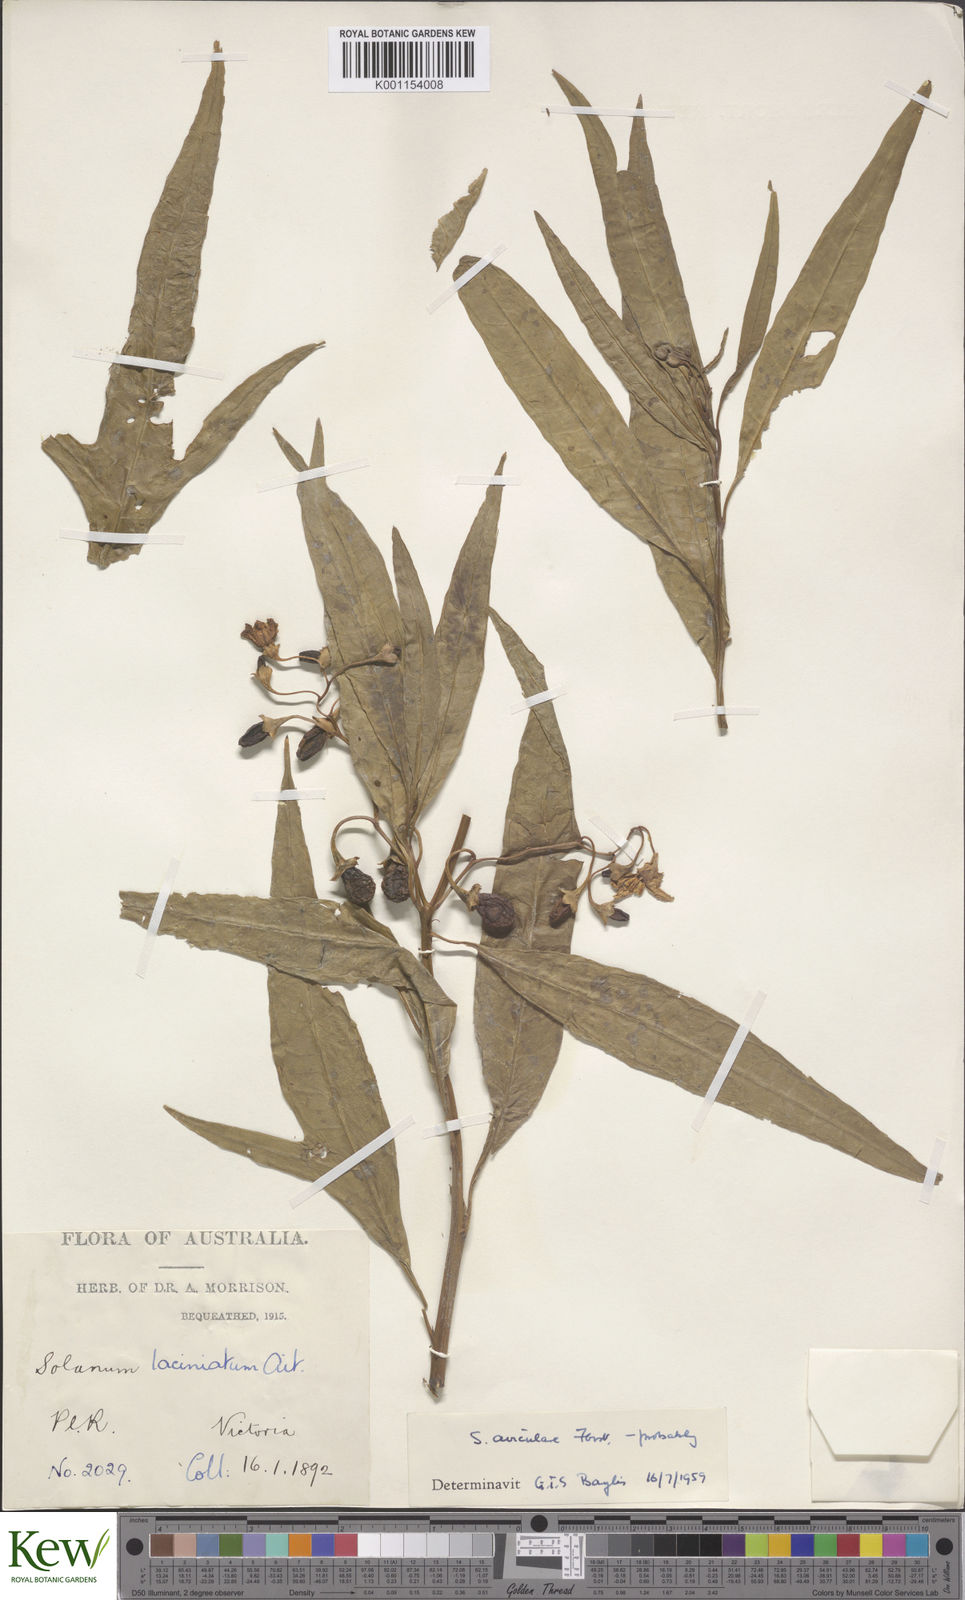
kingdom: Plantae
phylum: Tracheophyta
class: Magnoliopsida
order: Solanales
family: Solanaceae
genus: Solanum
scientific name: Solanum aviculare
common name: New zealand nightshade
